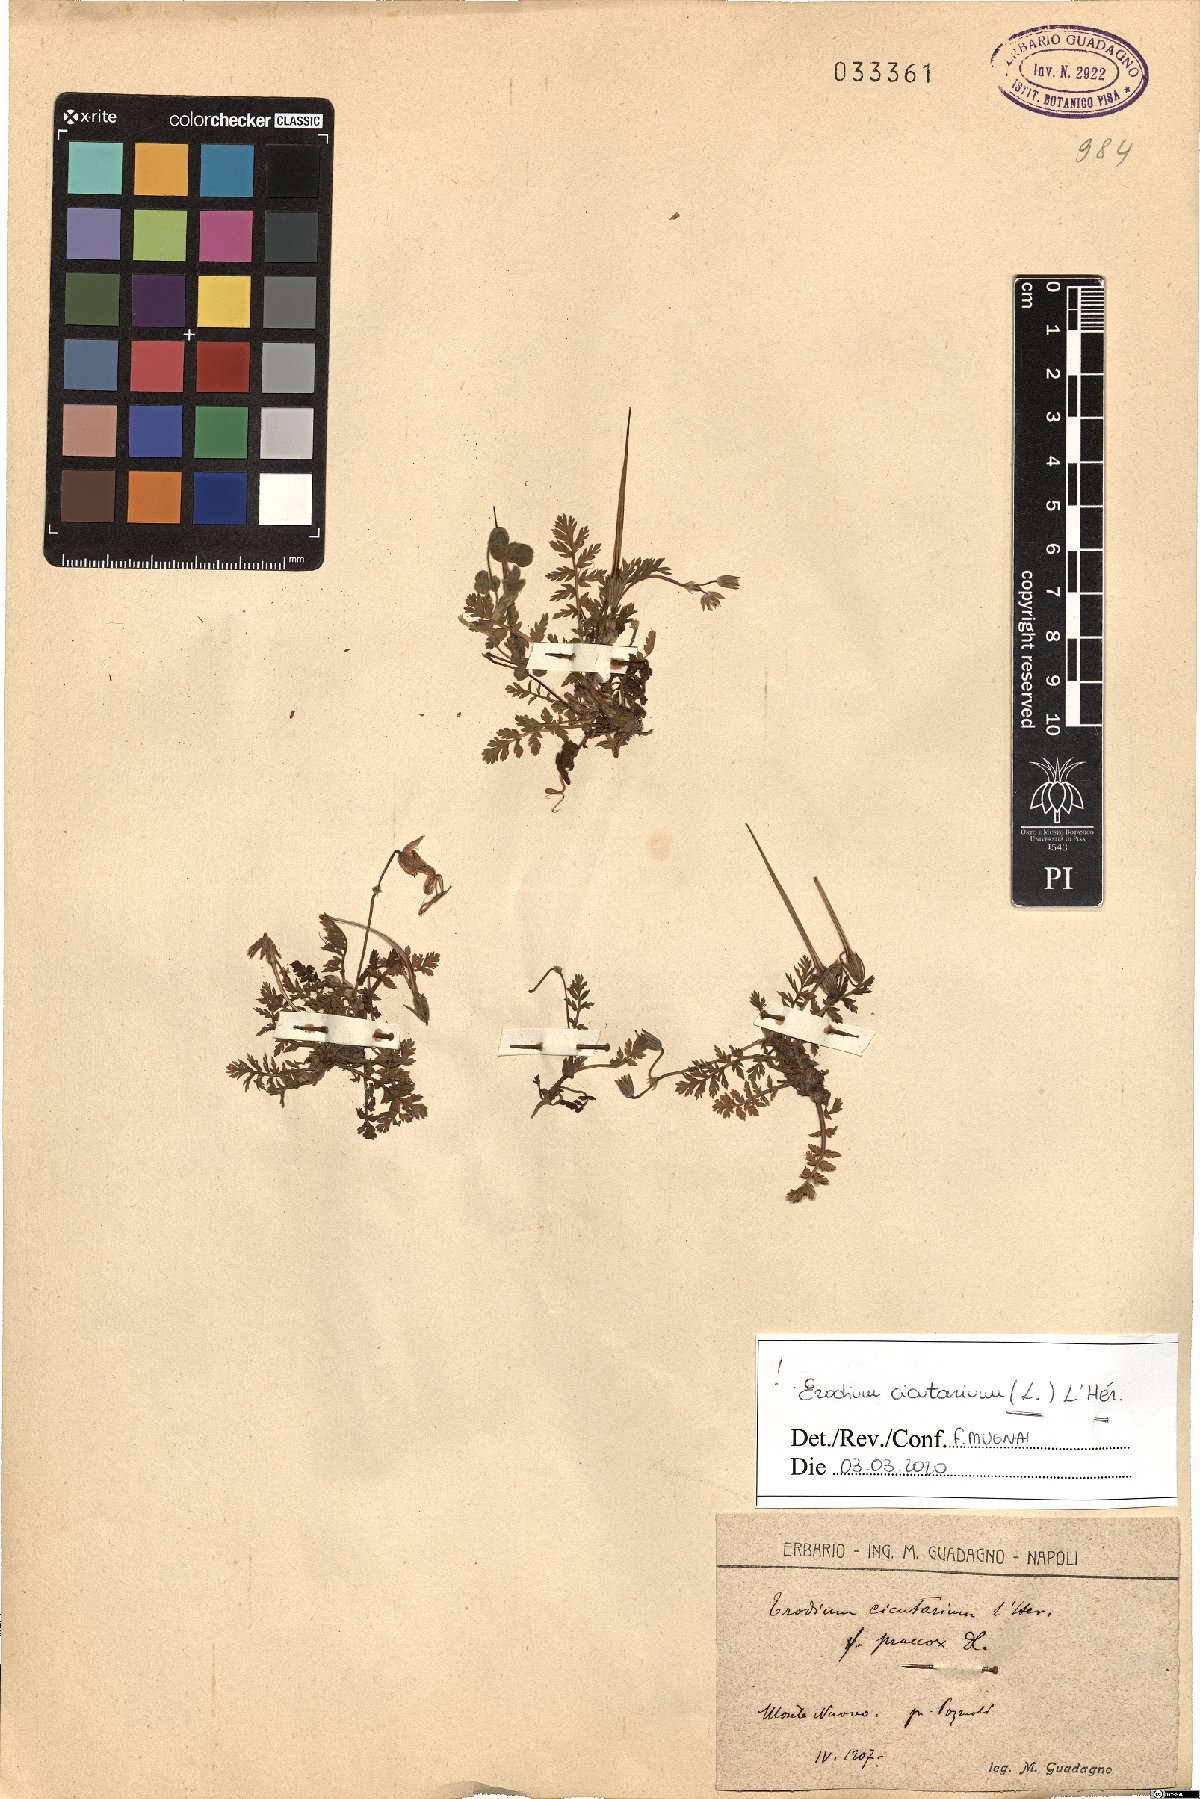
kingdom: Plantae
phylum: Tracheophyta
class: Magnoliopsida
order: Geraniales
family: Geraniaceae
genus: Erodium
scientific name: Erodium cicutarium
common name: Common stork's-bill
